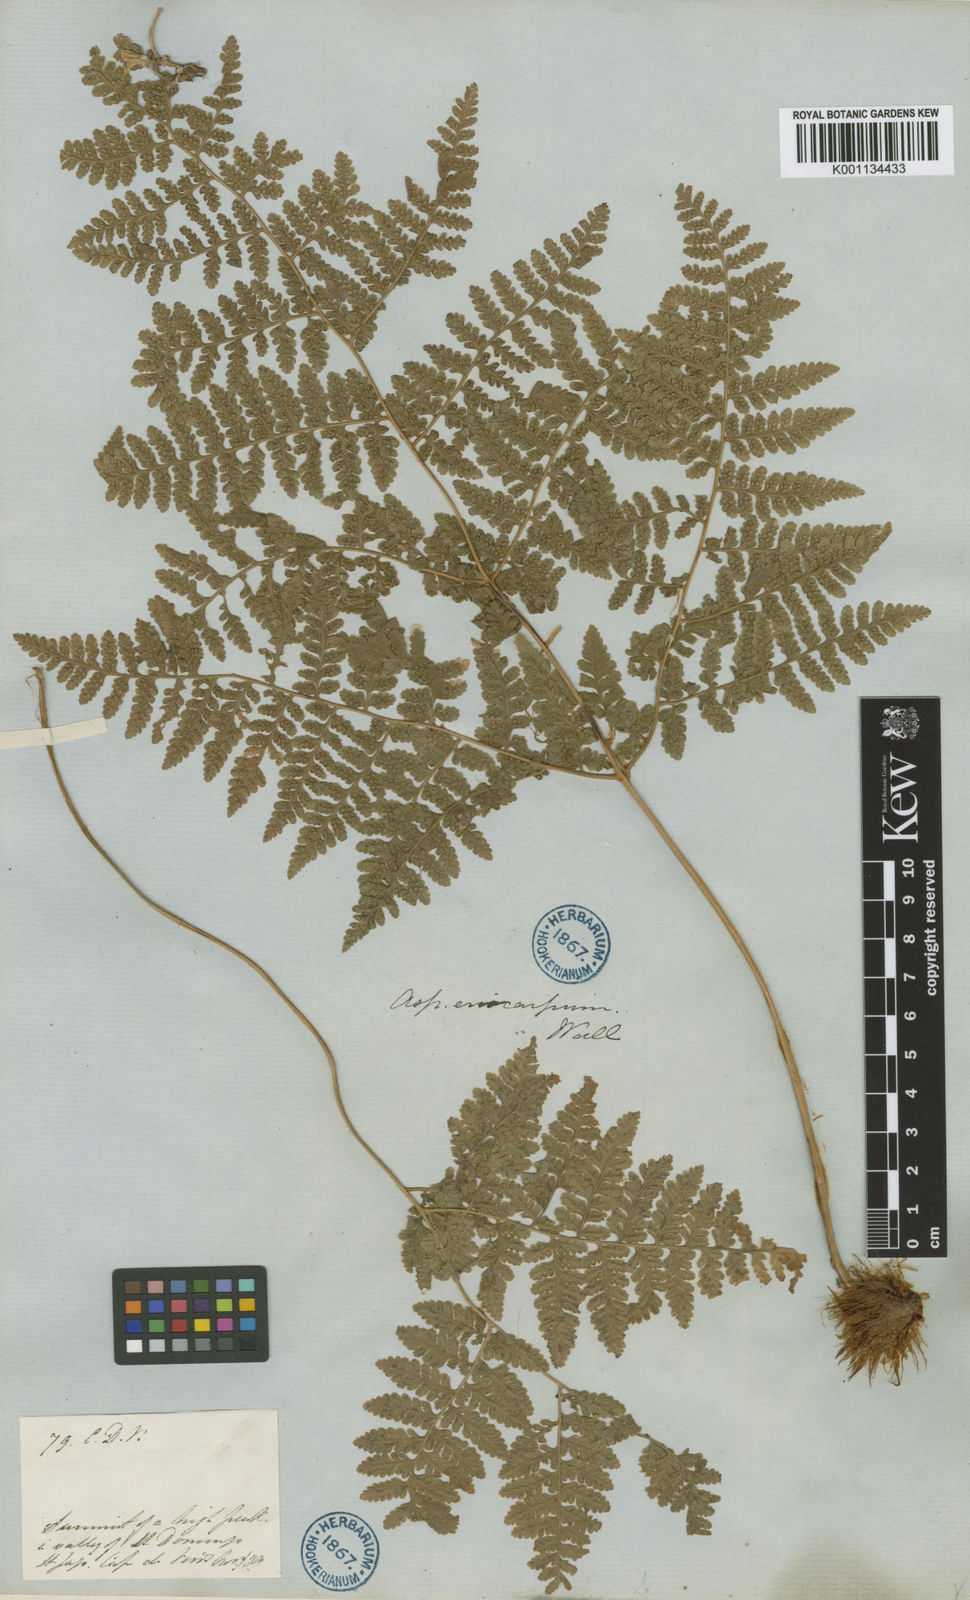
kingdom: Plantae
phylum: Tracheophyta
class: Polypodiopsida
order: Polypodiales
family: Hypodematiaceae
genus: Hypodematium
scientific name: Hypodematium chrysolepis
